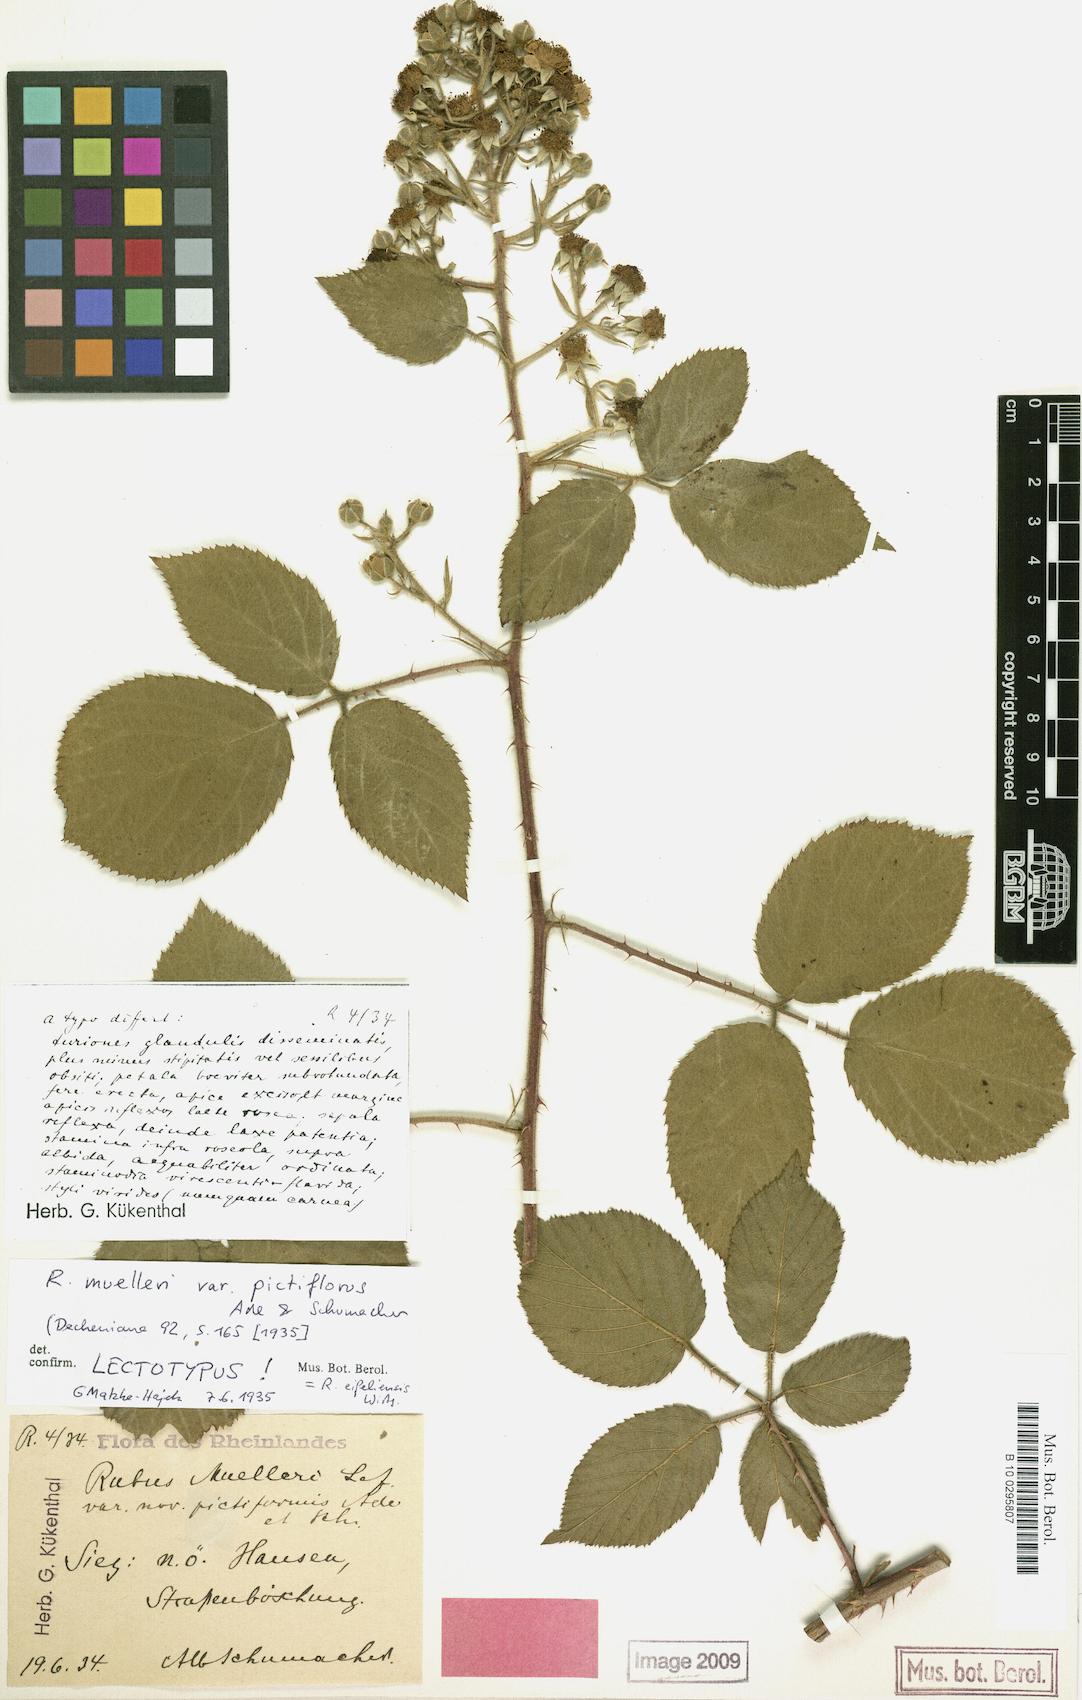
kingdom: Plantae
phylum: Tracheophyta
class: Magnoliopsida
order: Rosales
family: Rosaceae
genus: Rubus
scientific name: Rubus eifeliensis
